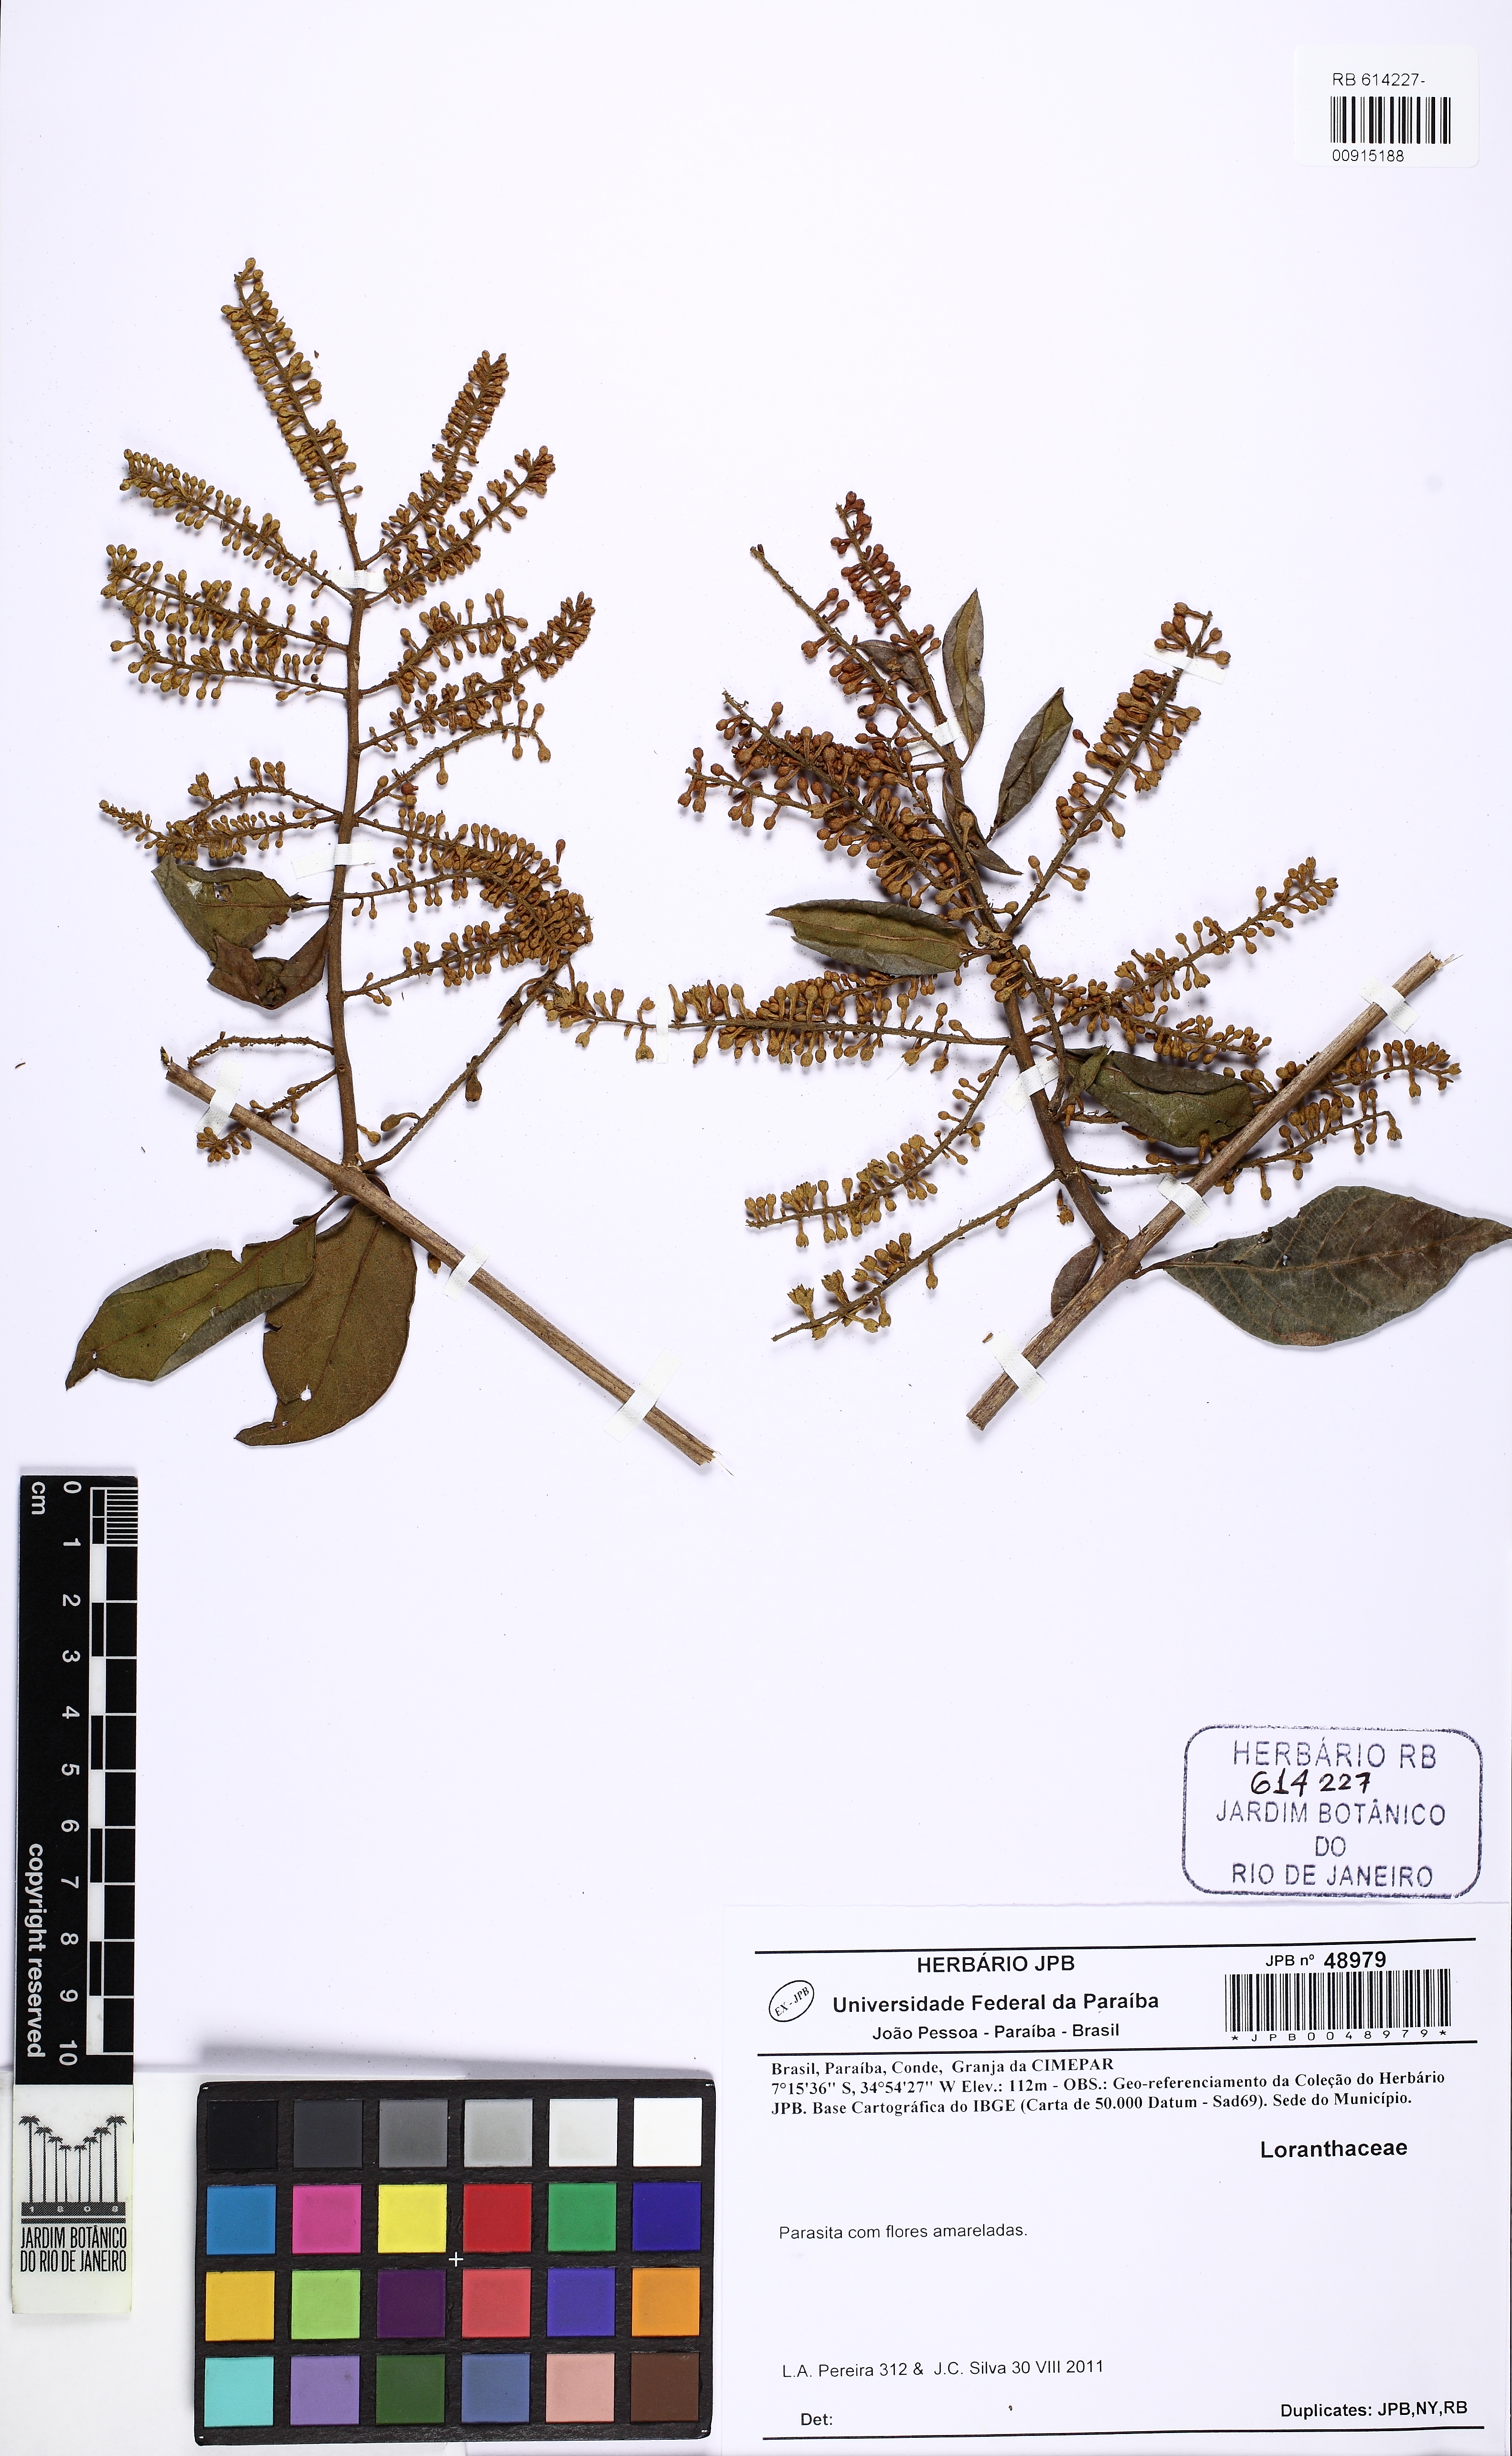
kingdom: Plantae
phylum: Tracheophyta
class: Magnoliopsida
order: Myrtales
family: Combretaceae
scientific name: Combretaceae
